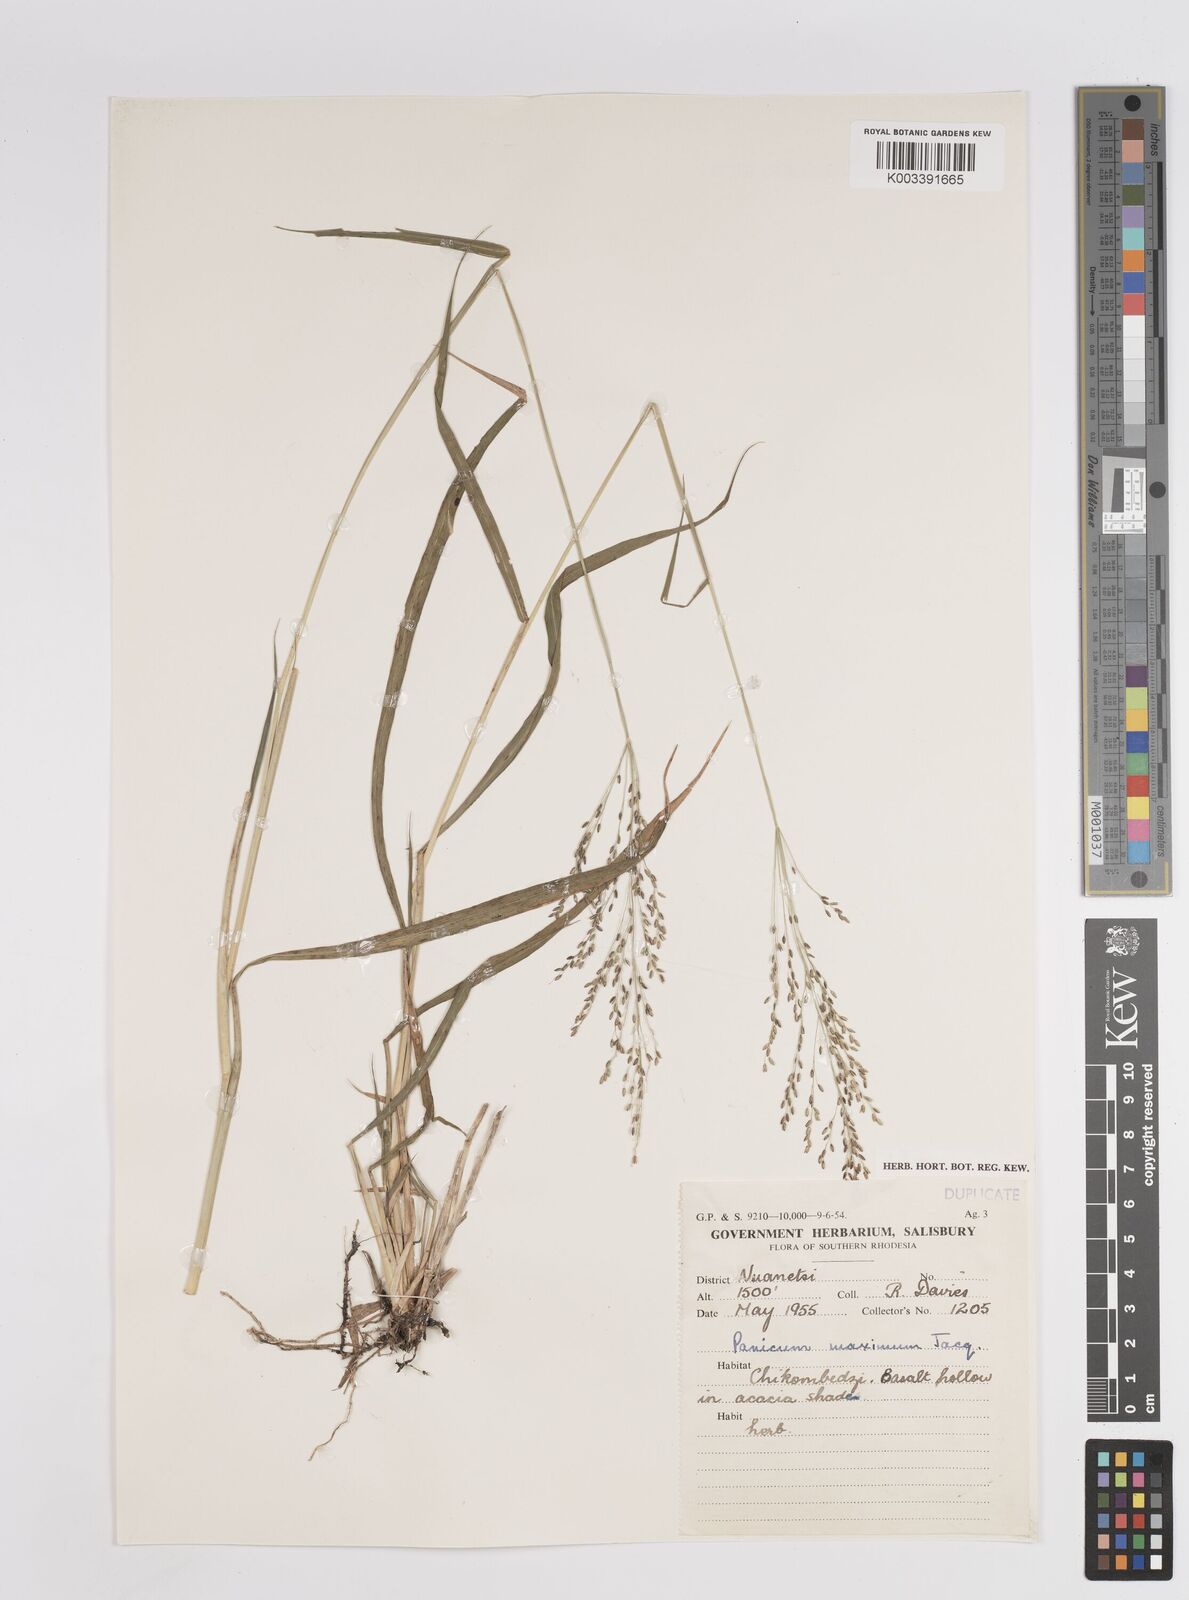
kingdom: Plantae
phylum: Tracheophyta
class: Liliopsida
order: Poales
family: Poaceae
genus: Megathyrsus
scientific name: Megathyrsus maximus
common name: Guineagrass
